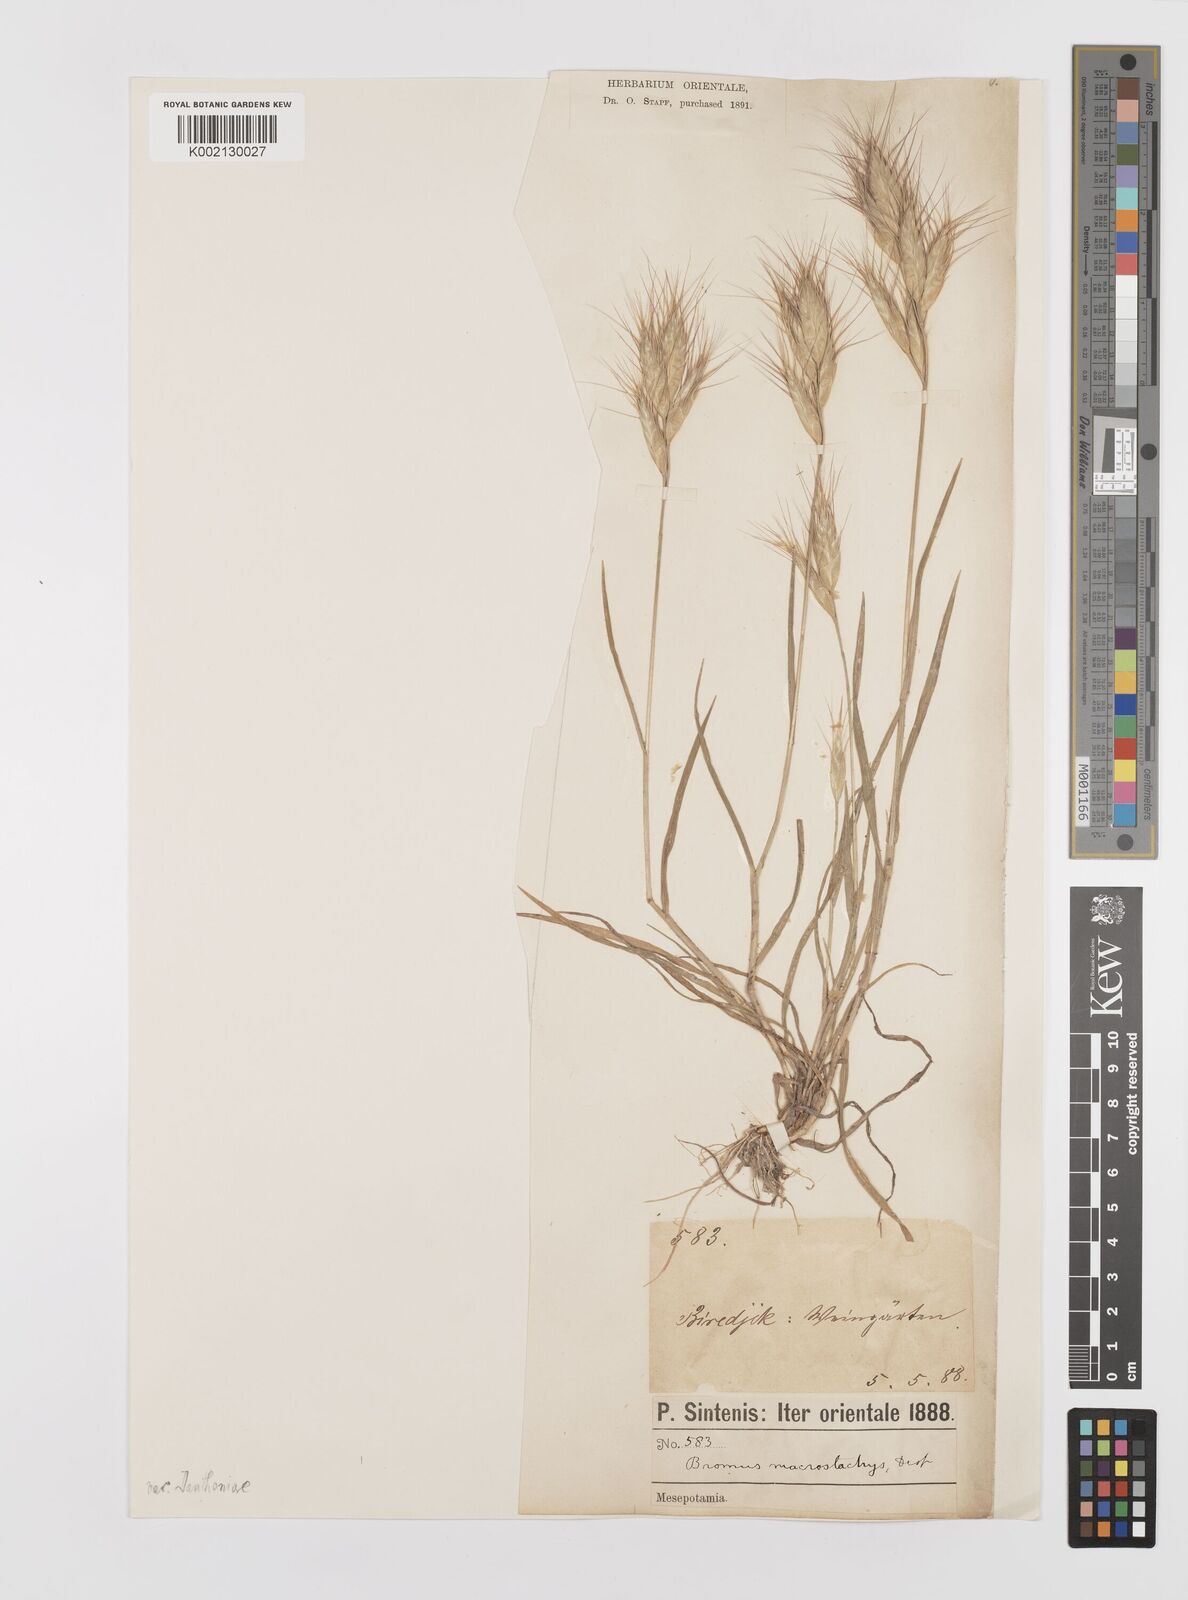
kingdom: Plantae
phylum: Tracheophyta
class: Liliopsida
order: Poales
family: Poaceae
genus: Bromus
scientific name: Bromus danthoniae
